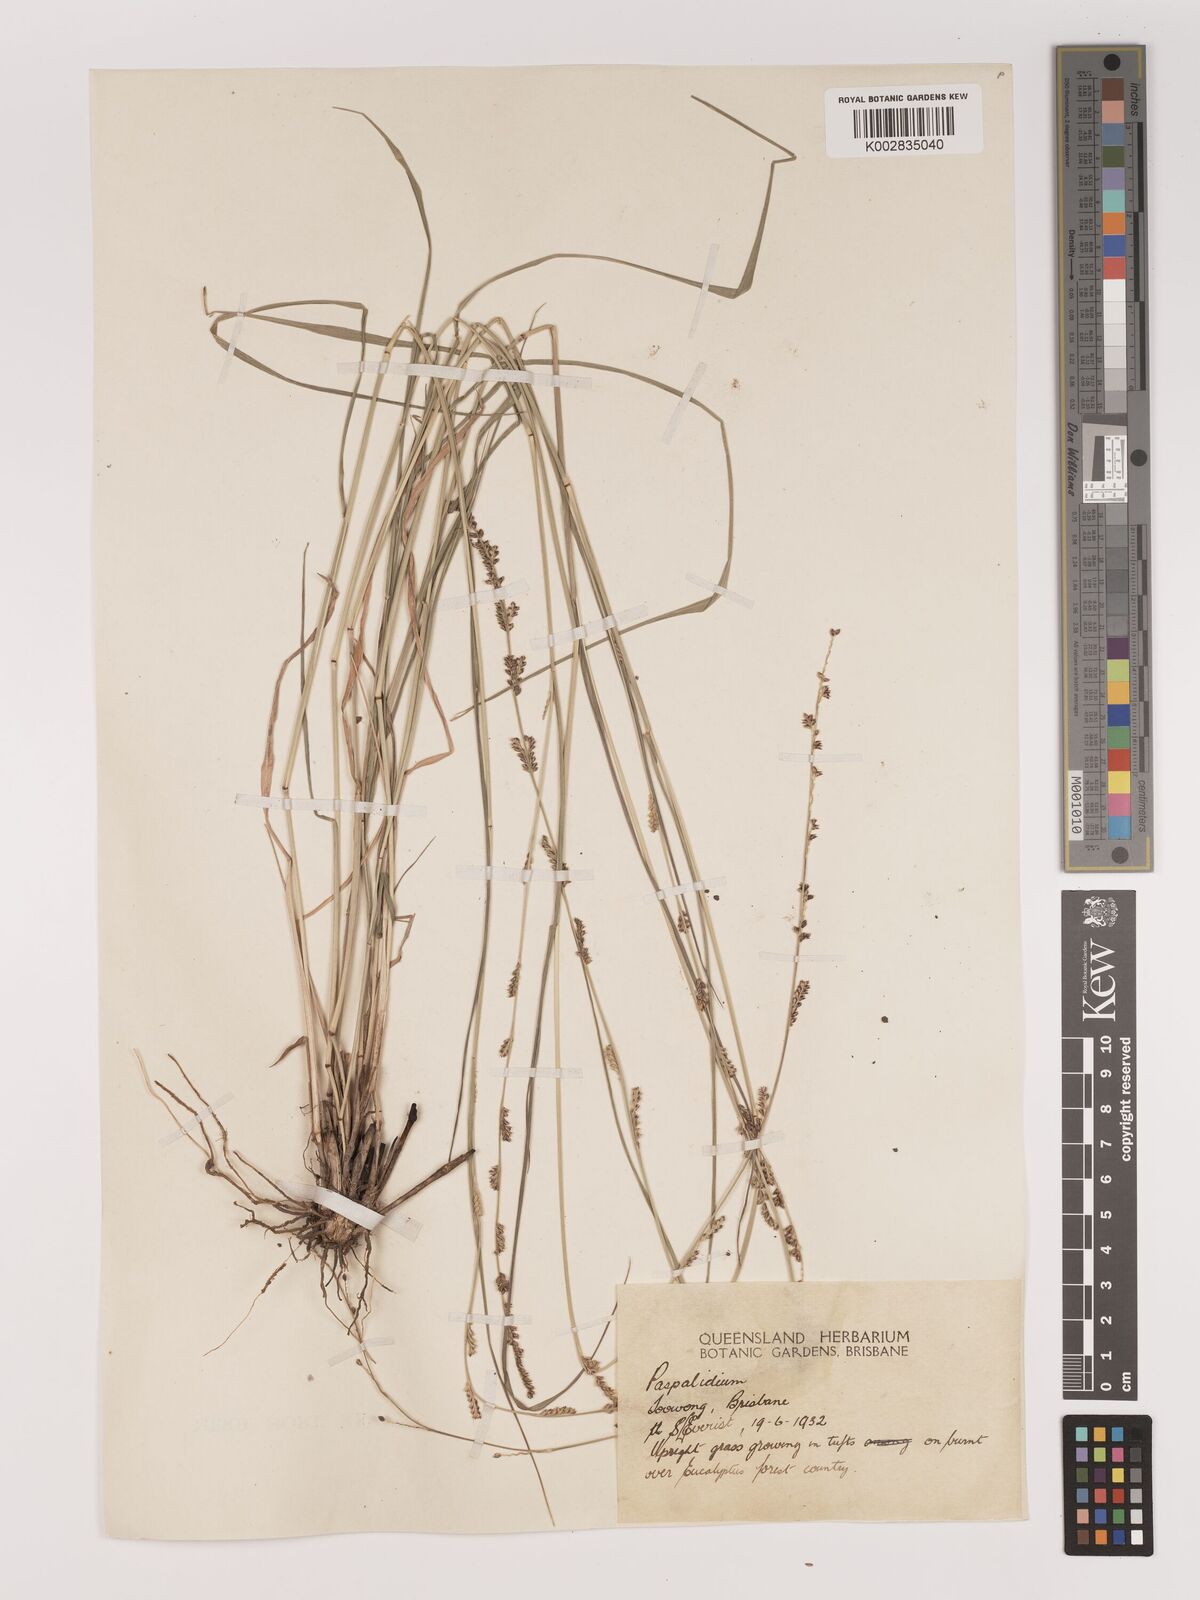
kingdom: Plantae
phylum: Tracheophyta
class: Liliopsida
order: Poales
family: Poaceae
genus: Setaria
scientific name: Setaria
